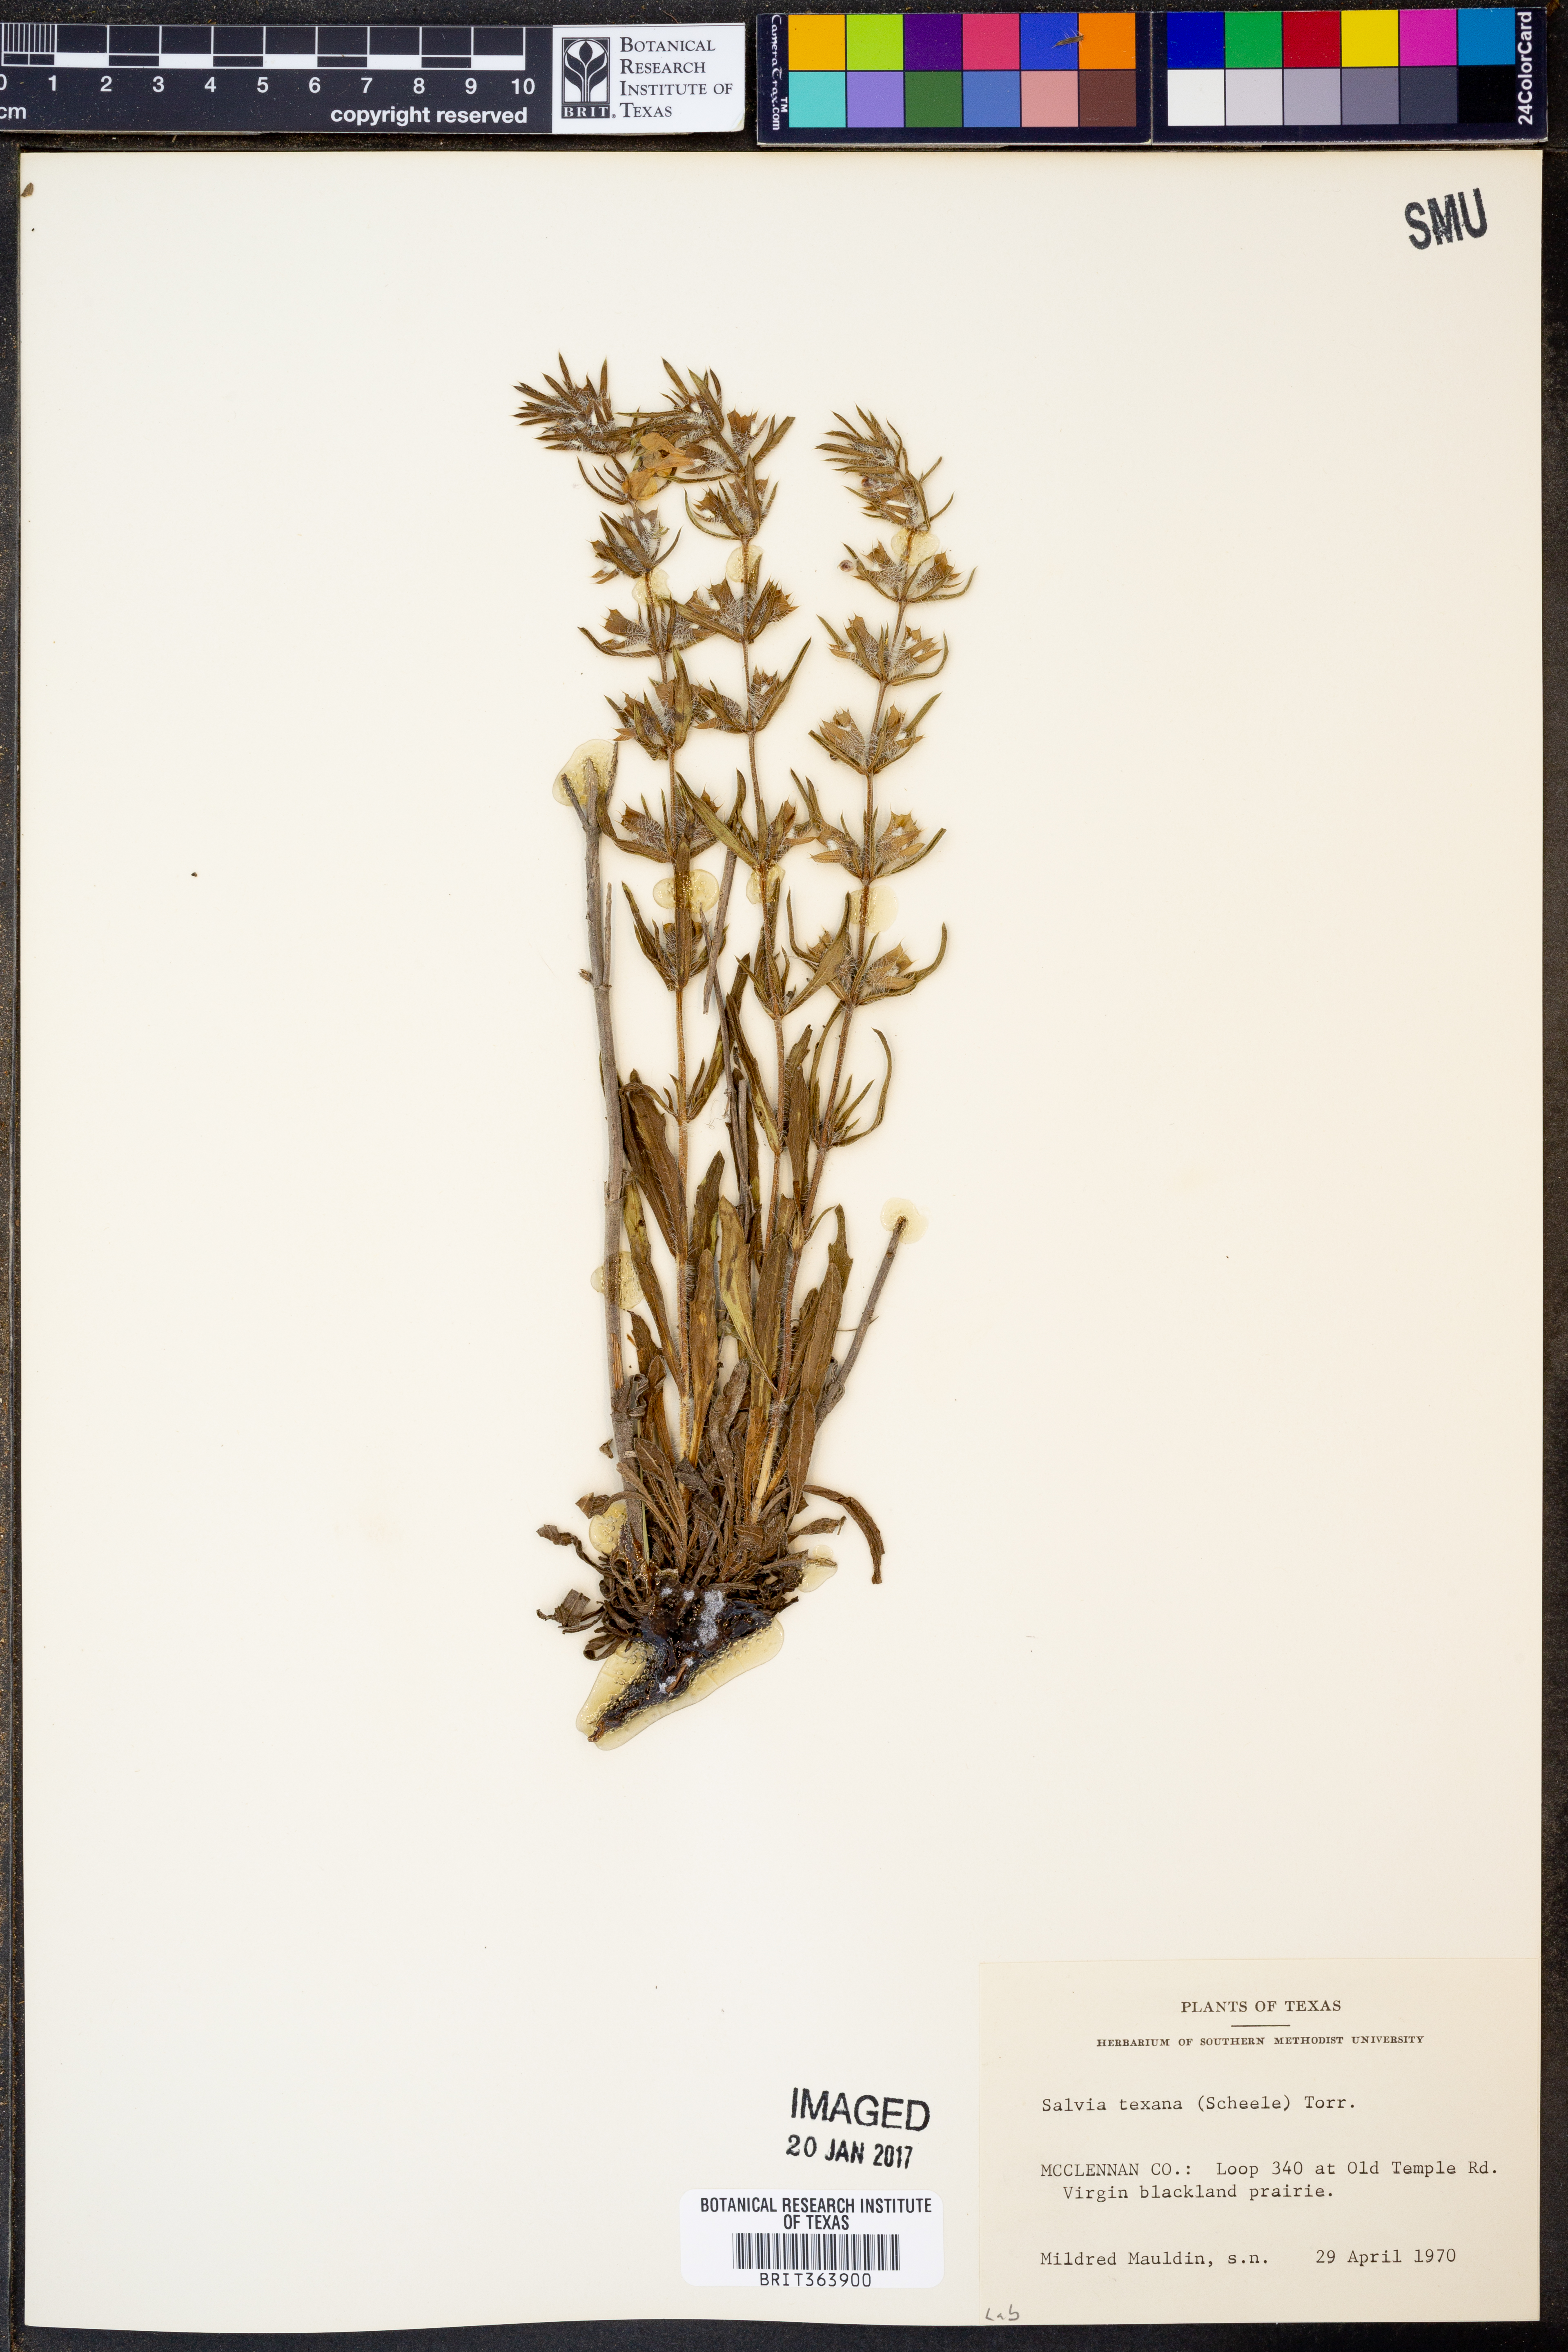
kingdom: Plantae
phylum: Tracheophyta
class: Magnoliopsida
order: Lamiales
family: Lamiaceae
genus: Salvia
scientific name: Salvia texana
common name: Texas sage
